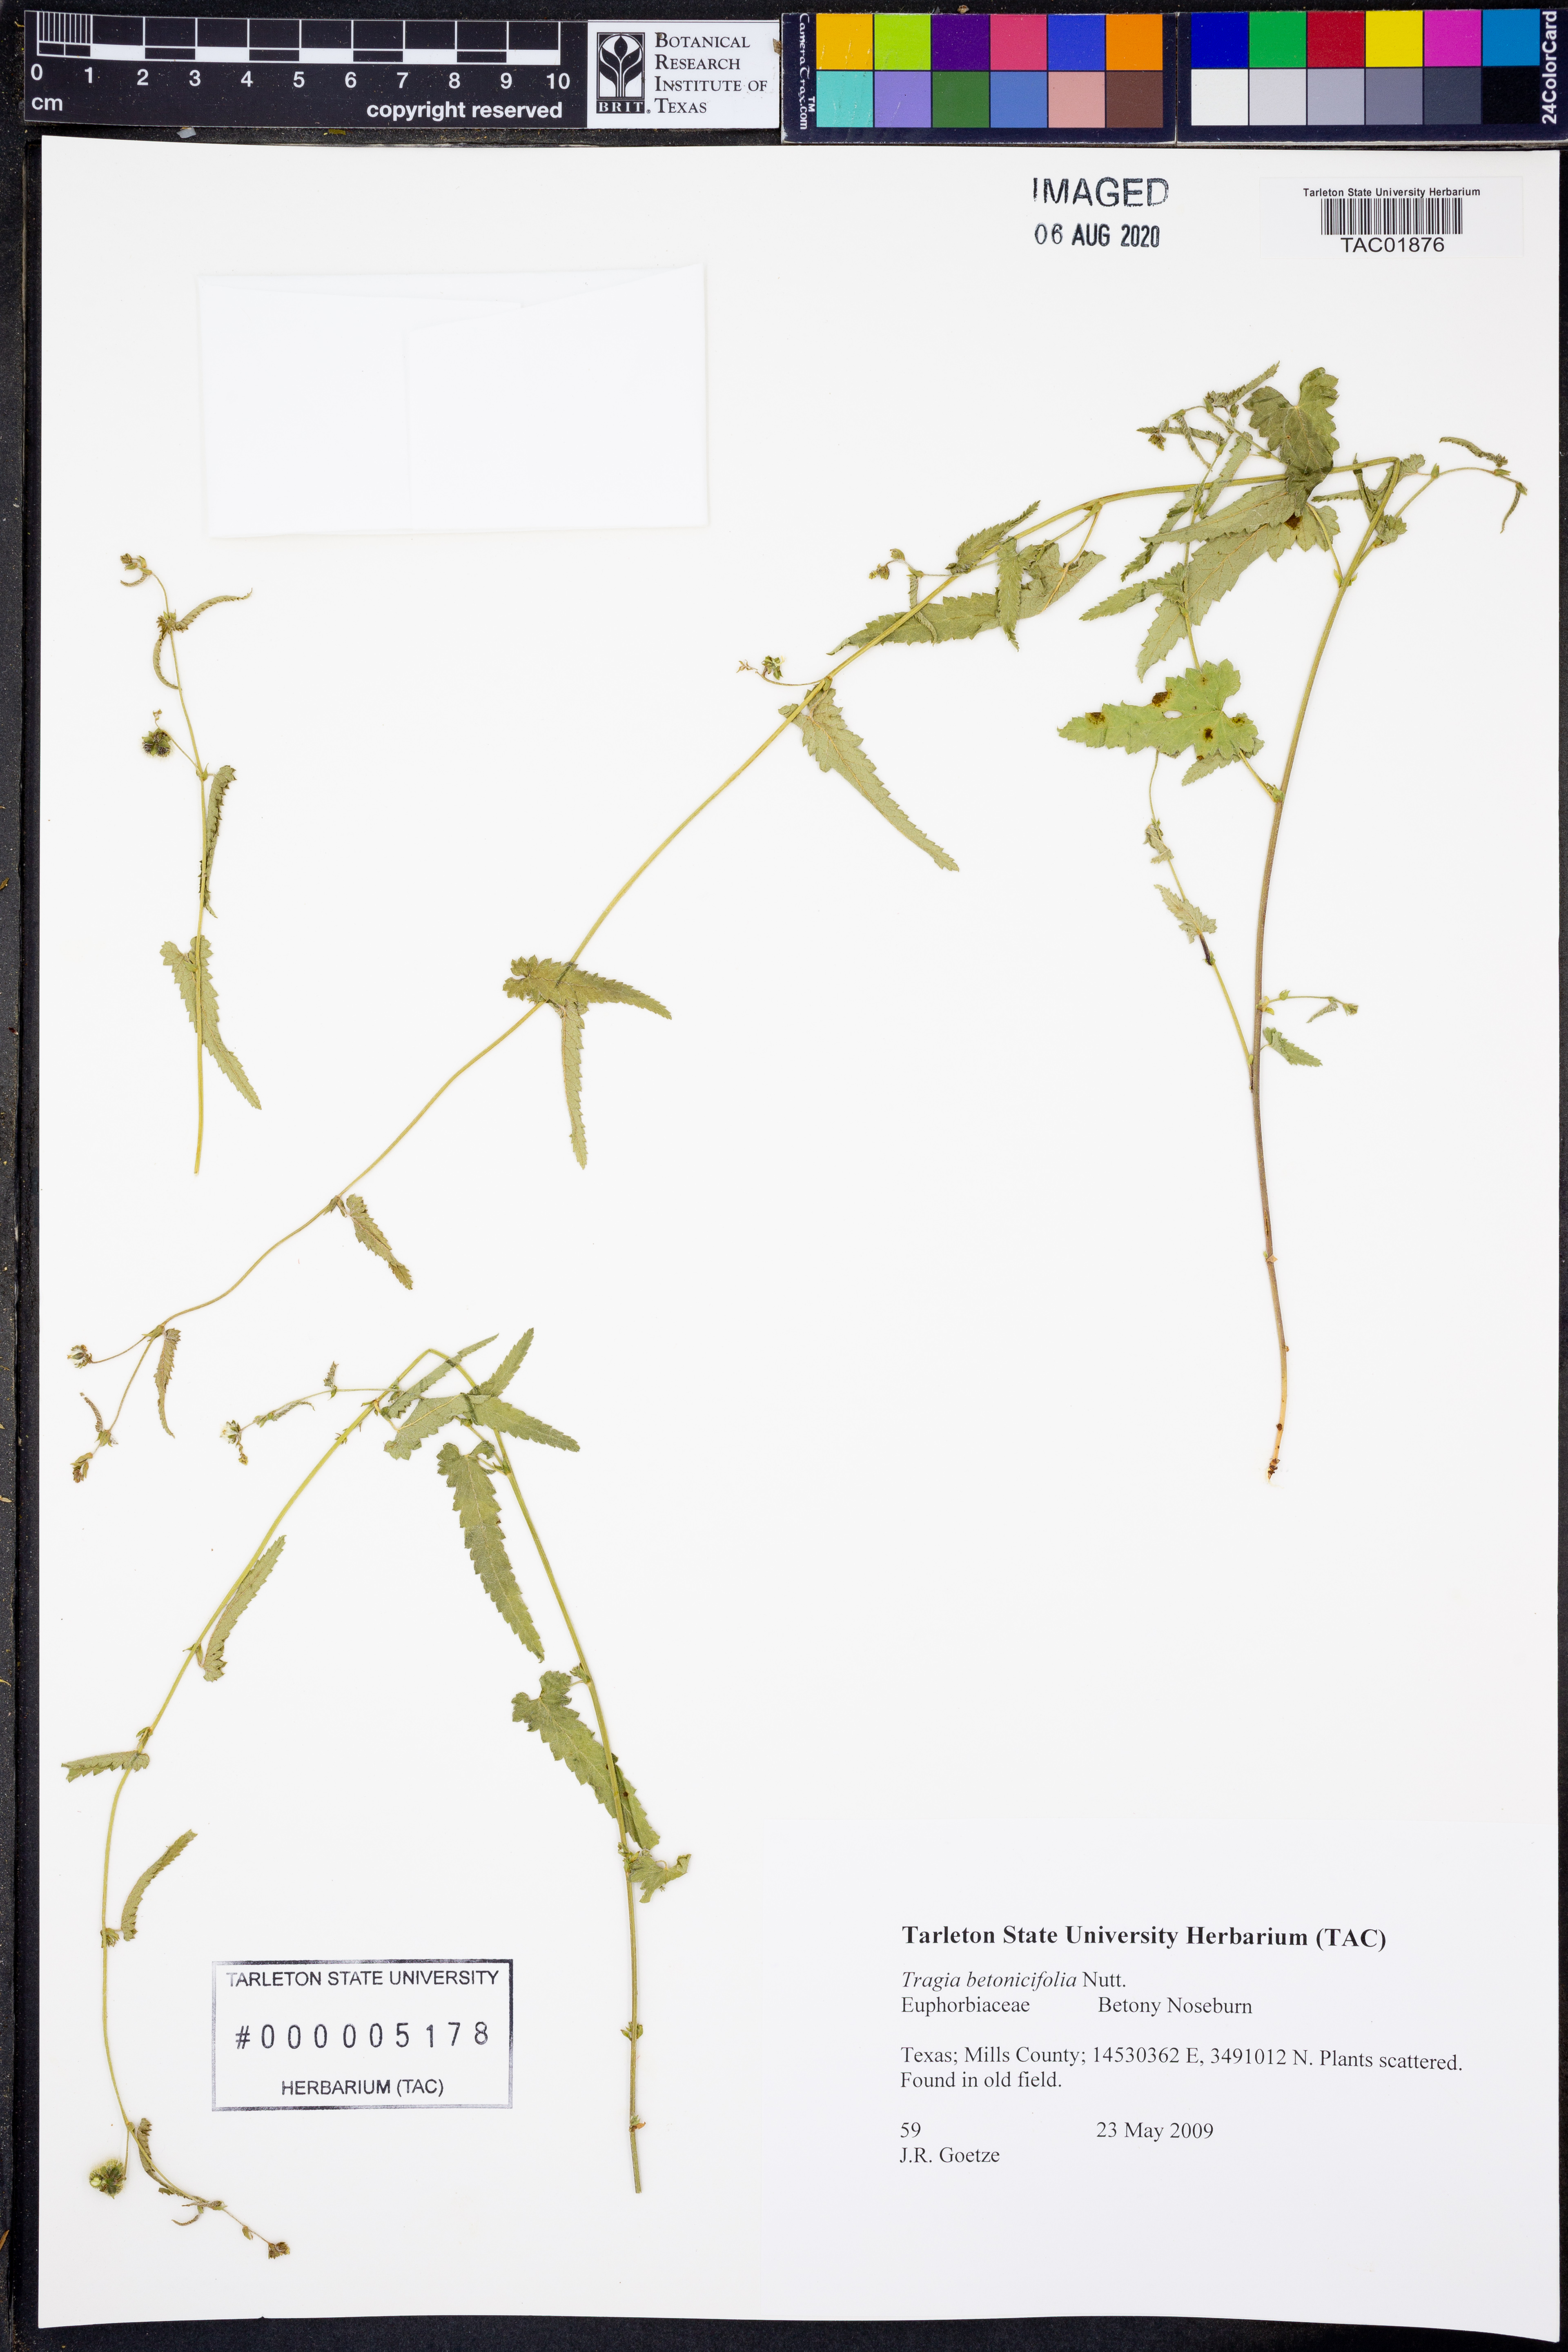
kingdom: Plantae
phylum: Tracheophyta
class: Magnoliopsida
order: Malpighiales
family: Euphorbiaceae
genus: Tragia
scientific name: Tragia betonicifolia
